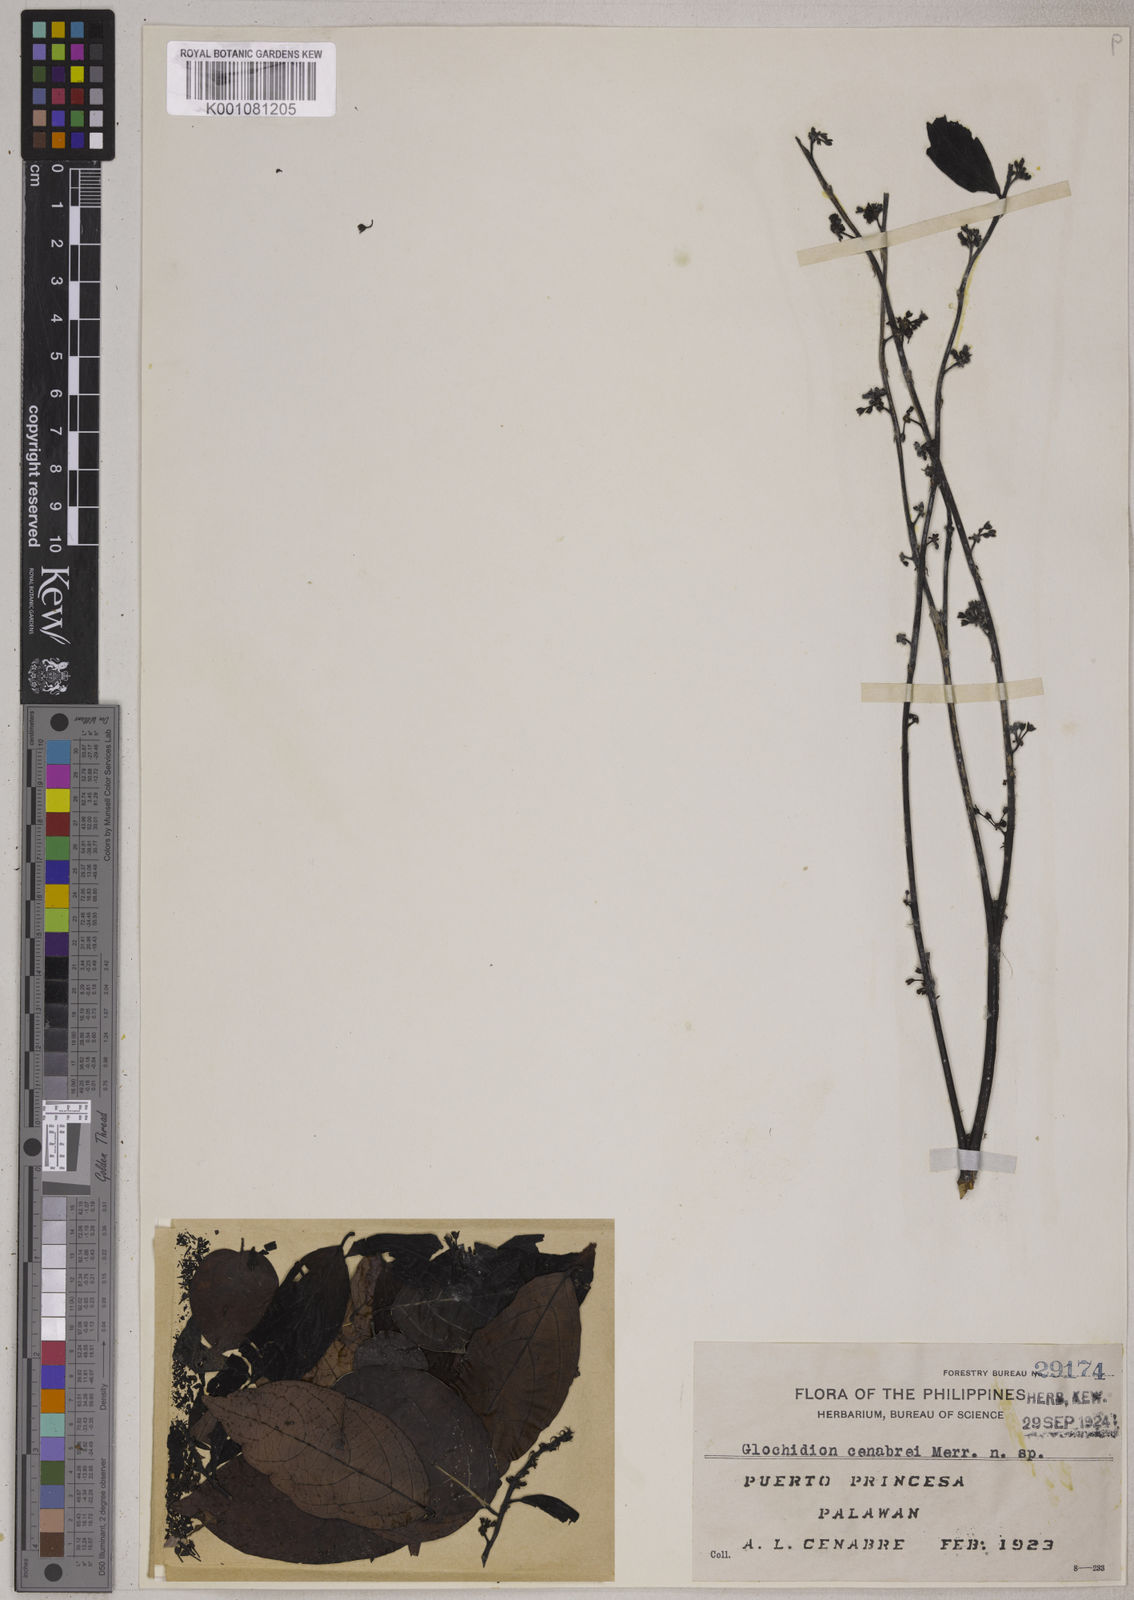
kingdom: Plantae
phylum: Tracheophyta
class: Magnoliopsida
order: Malpighiales
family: Phyllanthaceae
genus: Glochidion
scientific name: Glochidion cenabrei
